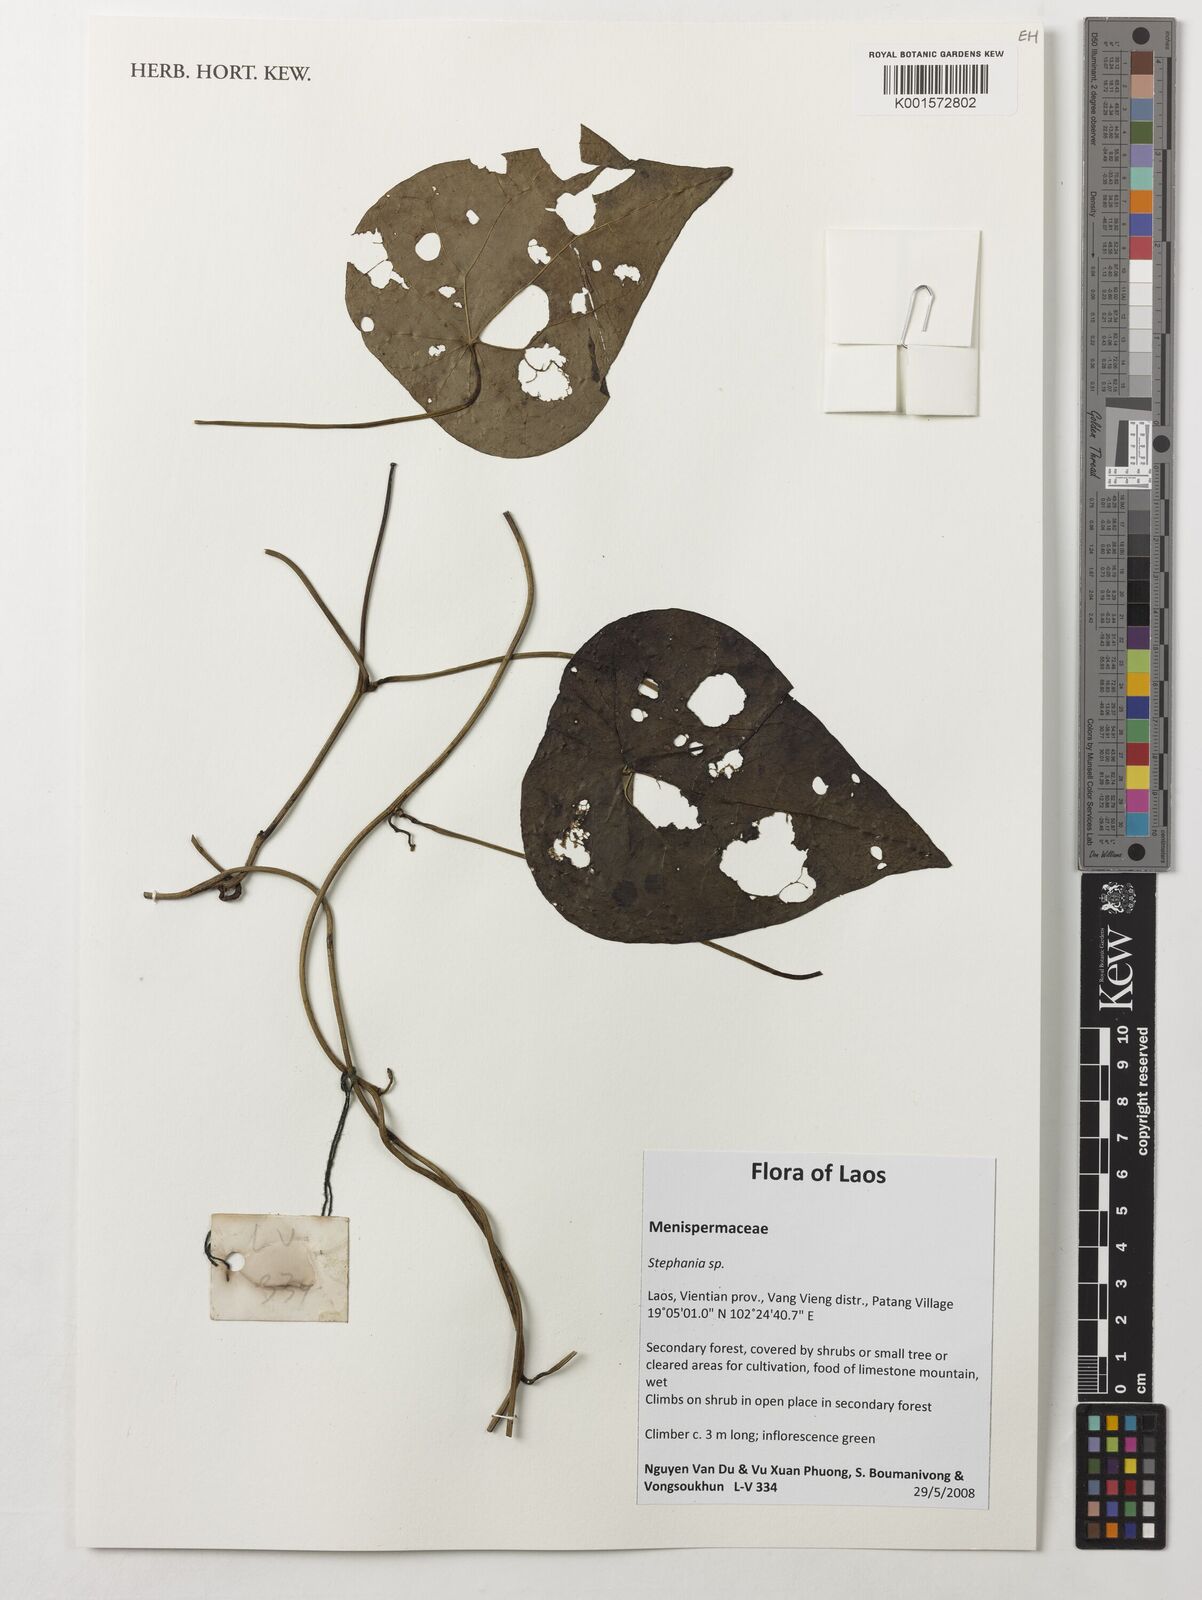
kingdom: Plantae
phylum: Tracheophyta
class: Magnoliopsida
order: Ranunculales
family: Menispermaceae
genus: Stephania
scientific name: Stephania
